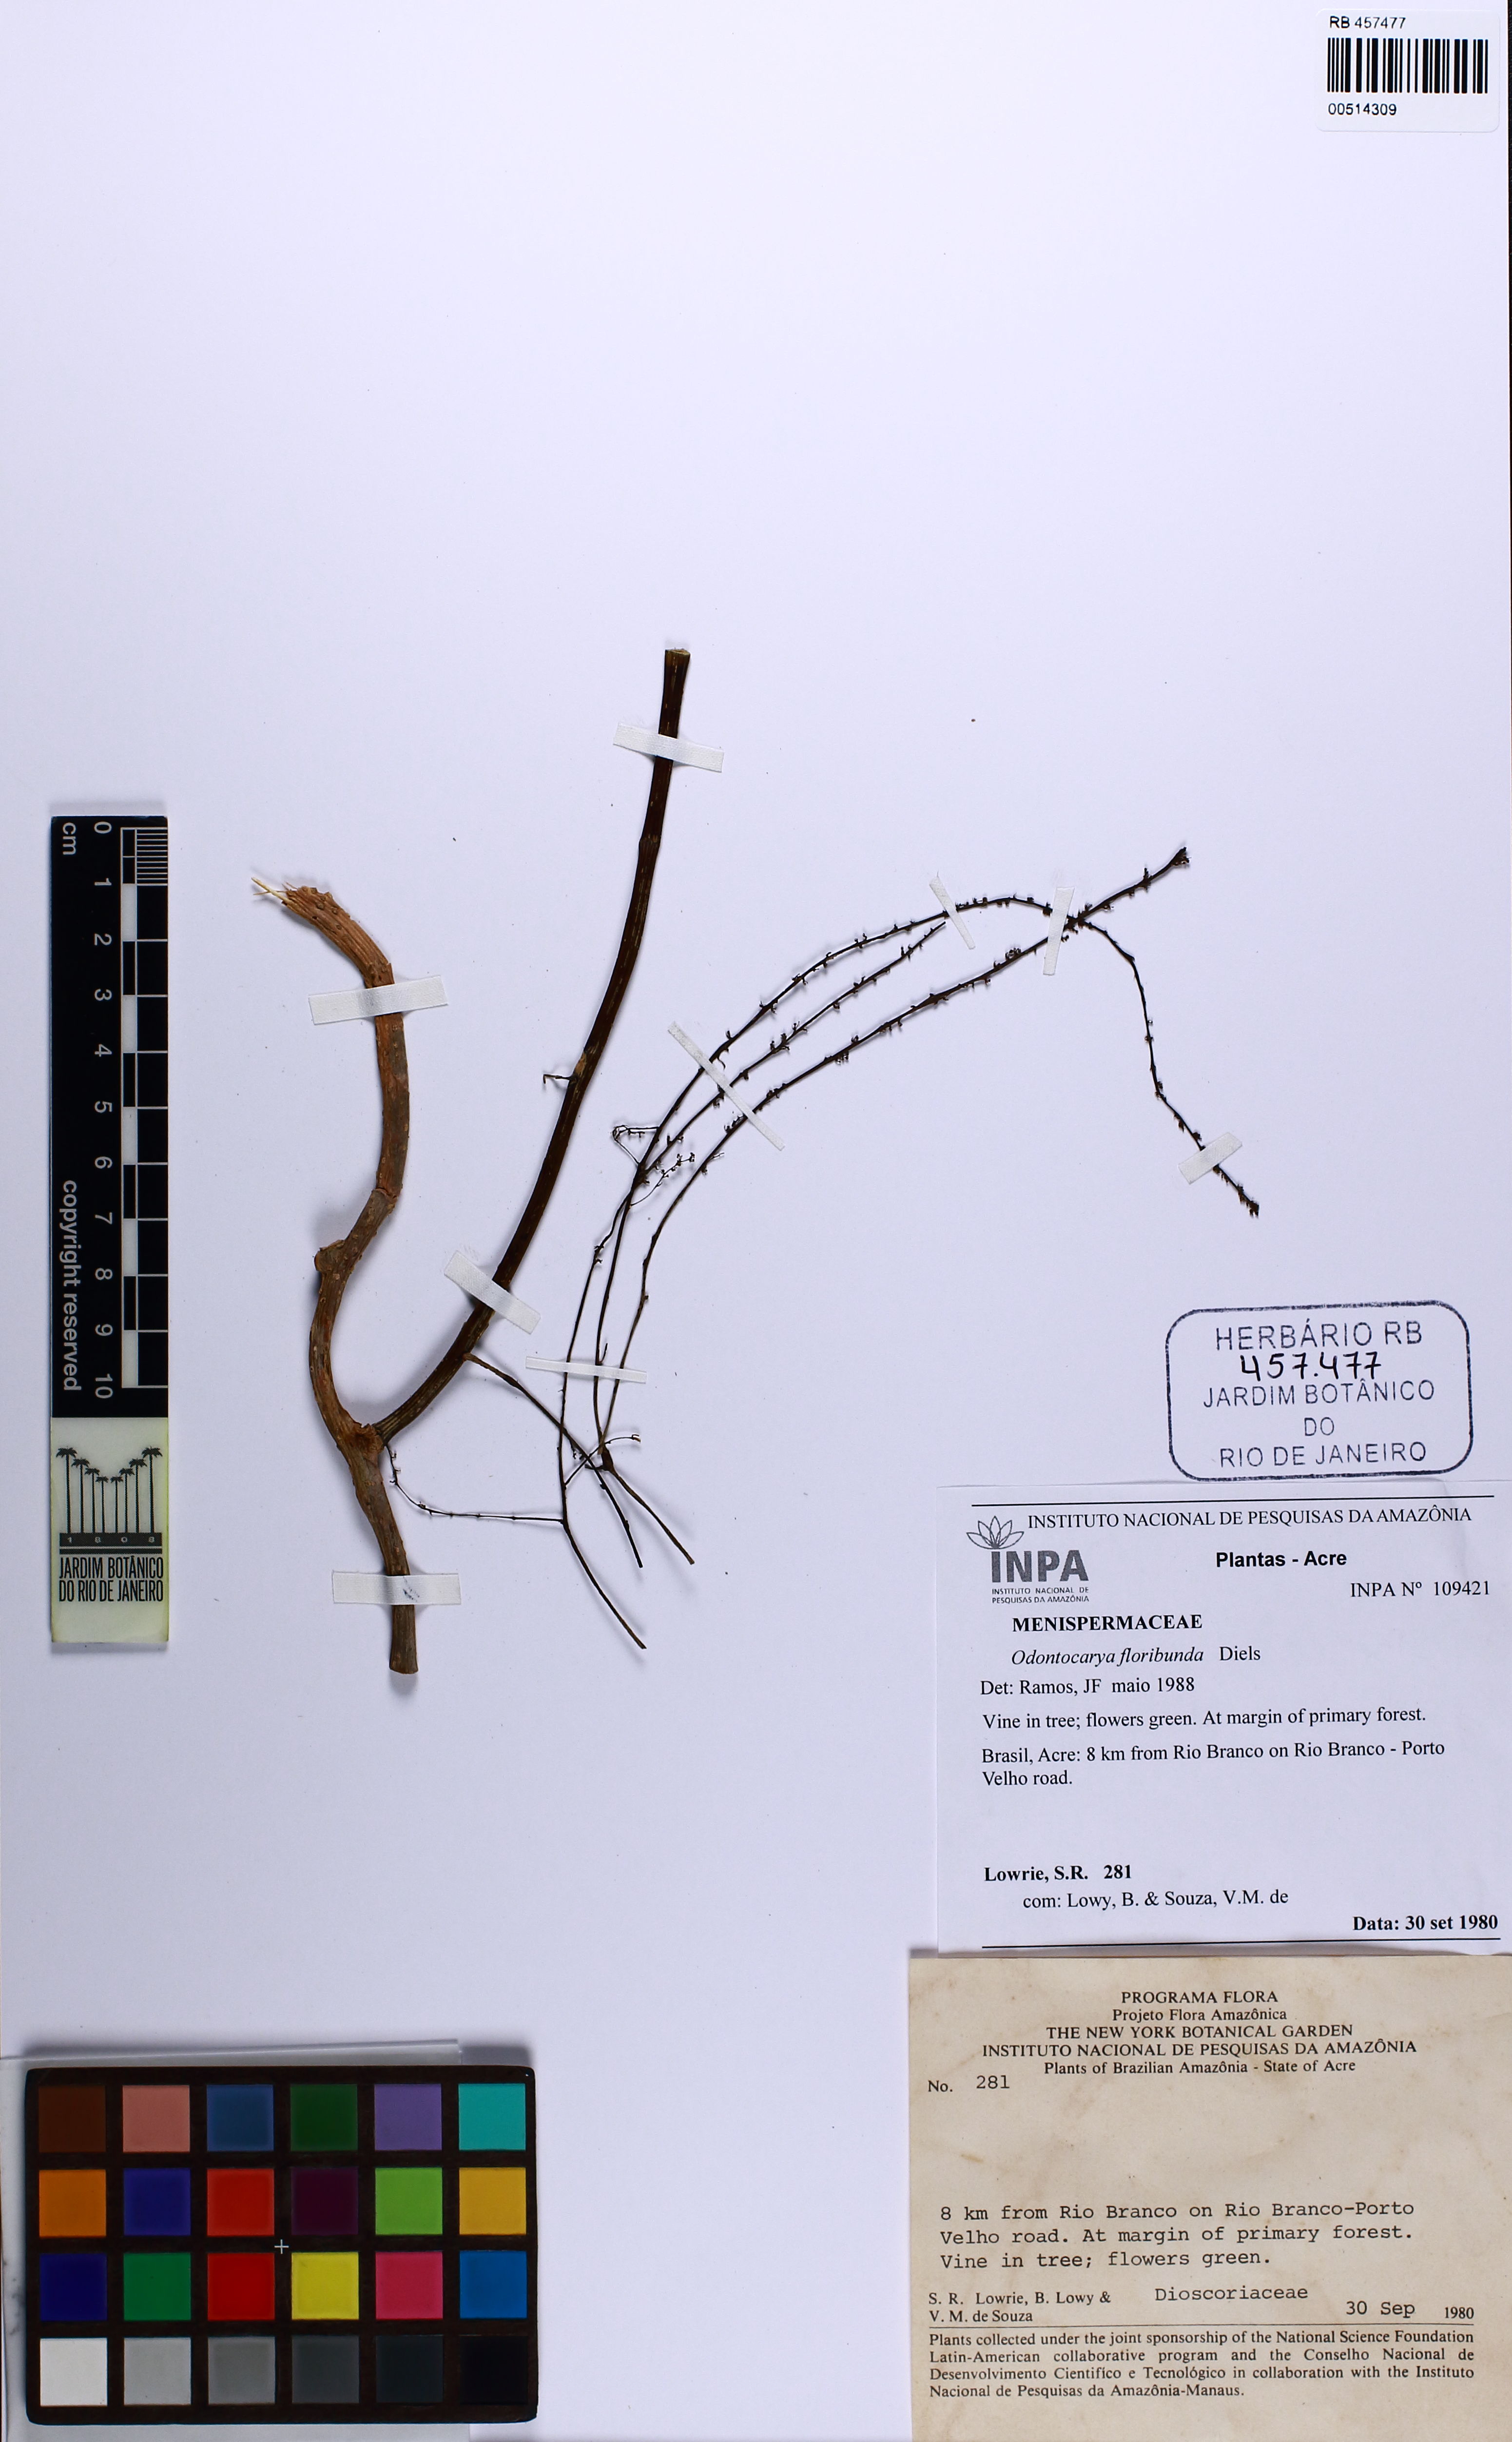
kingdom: Plantae
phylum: Tracheophyta
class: Magnoliopsida
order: Ranunculales
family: Menispermaceae
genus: Odontocarya
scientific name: Odontocarya floribunda
